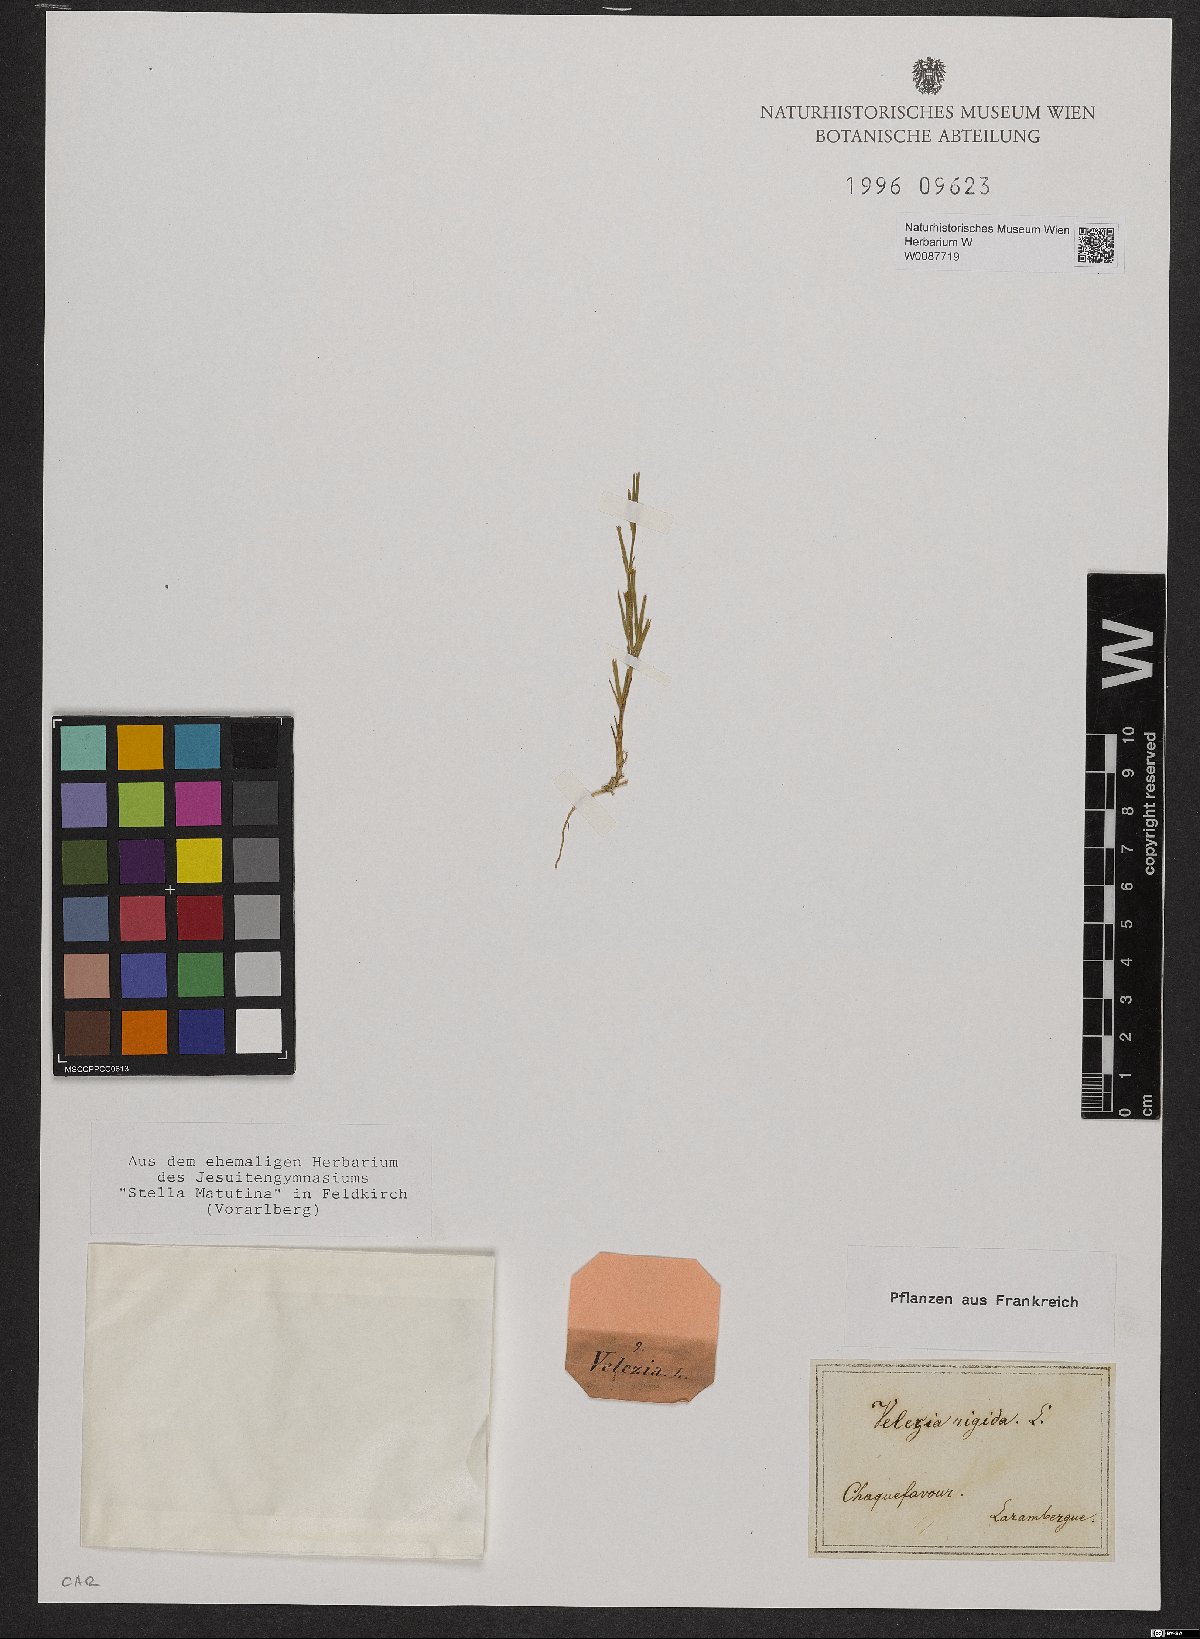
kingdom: Plantae
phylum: Tracheophyta
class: Magnoliopsida
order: Caryophyllales
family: Caryophyllaceae
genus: Dianthus
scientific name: Dianthus nudiflorus
